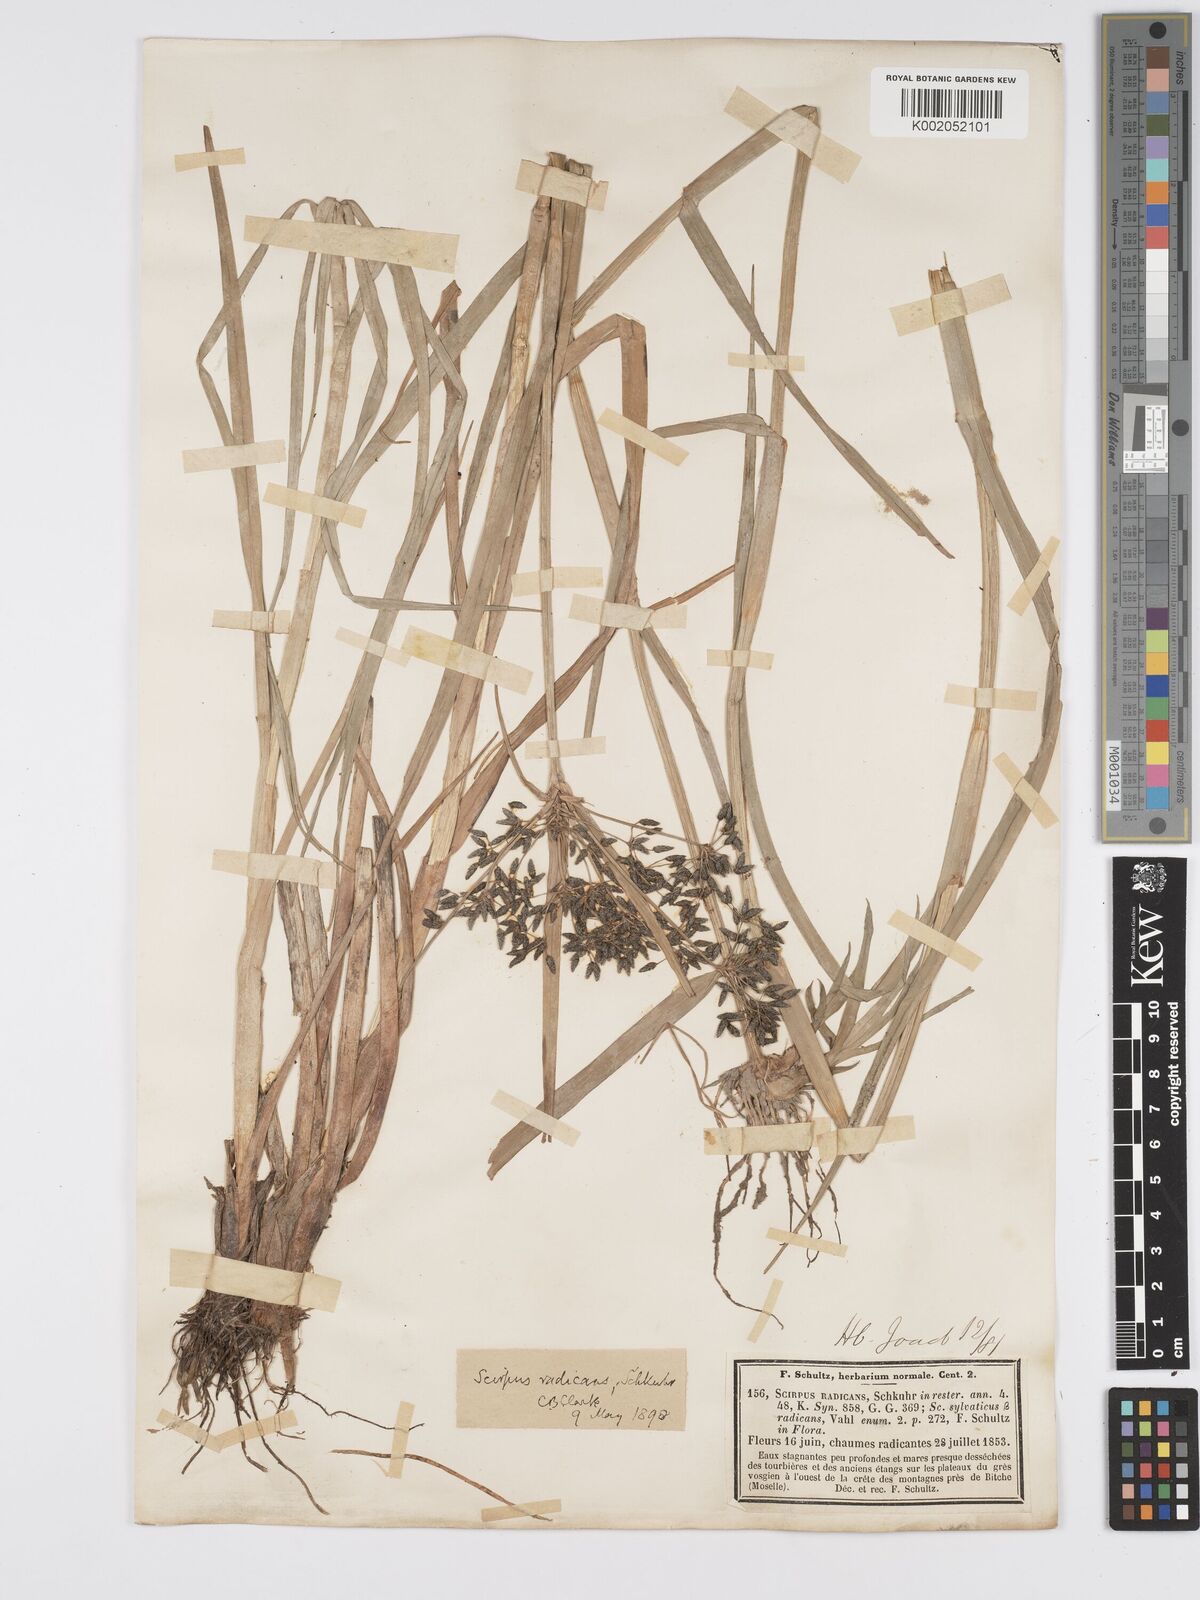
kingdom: Plantae
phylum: Tracheophyta
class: Liliopsida
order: Poales
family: Cyperaceae
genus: Scirpus
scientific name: Scirpus radicans
